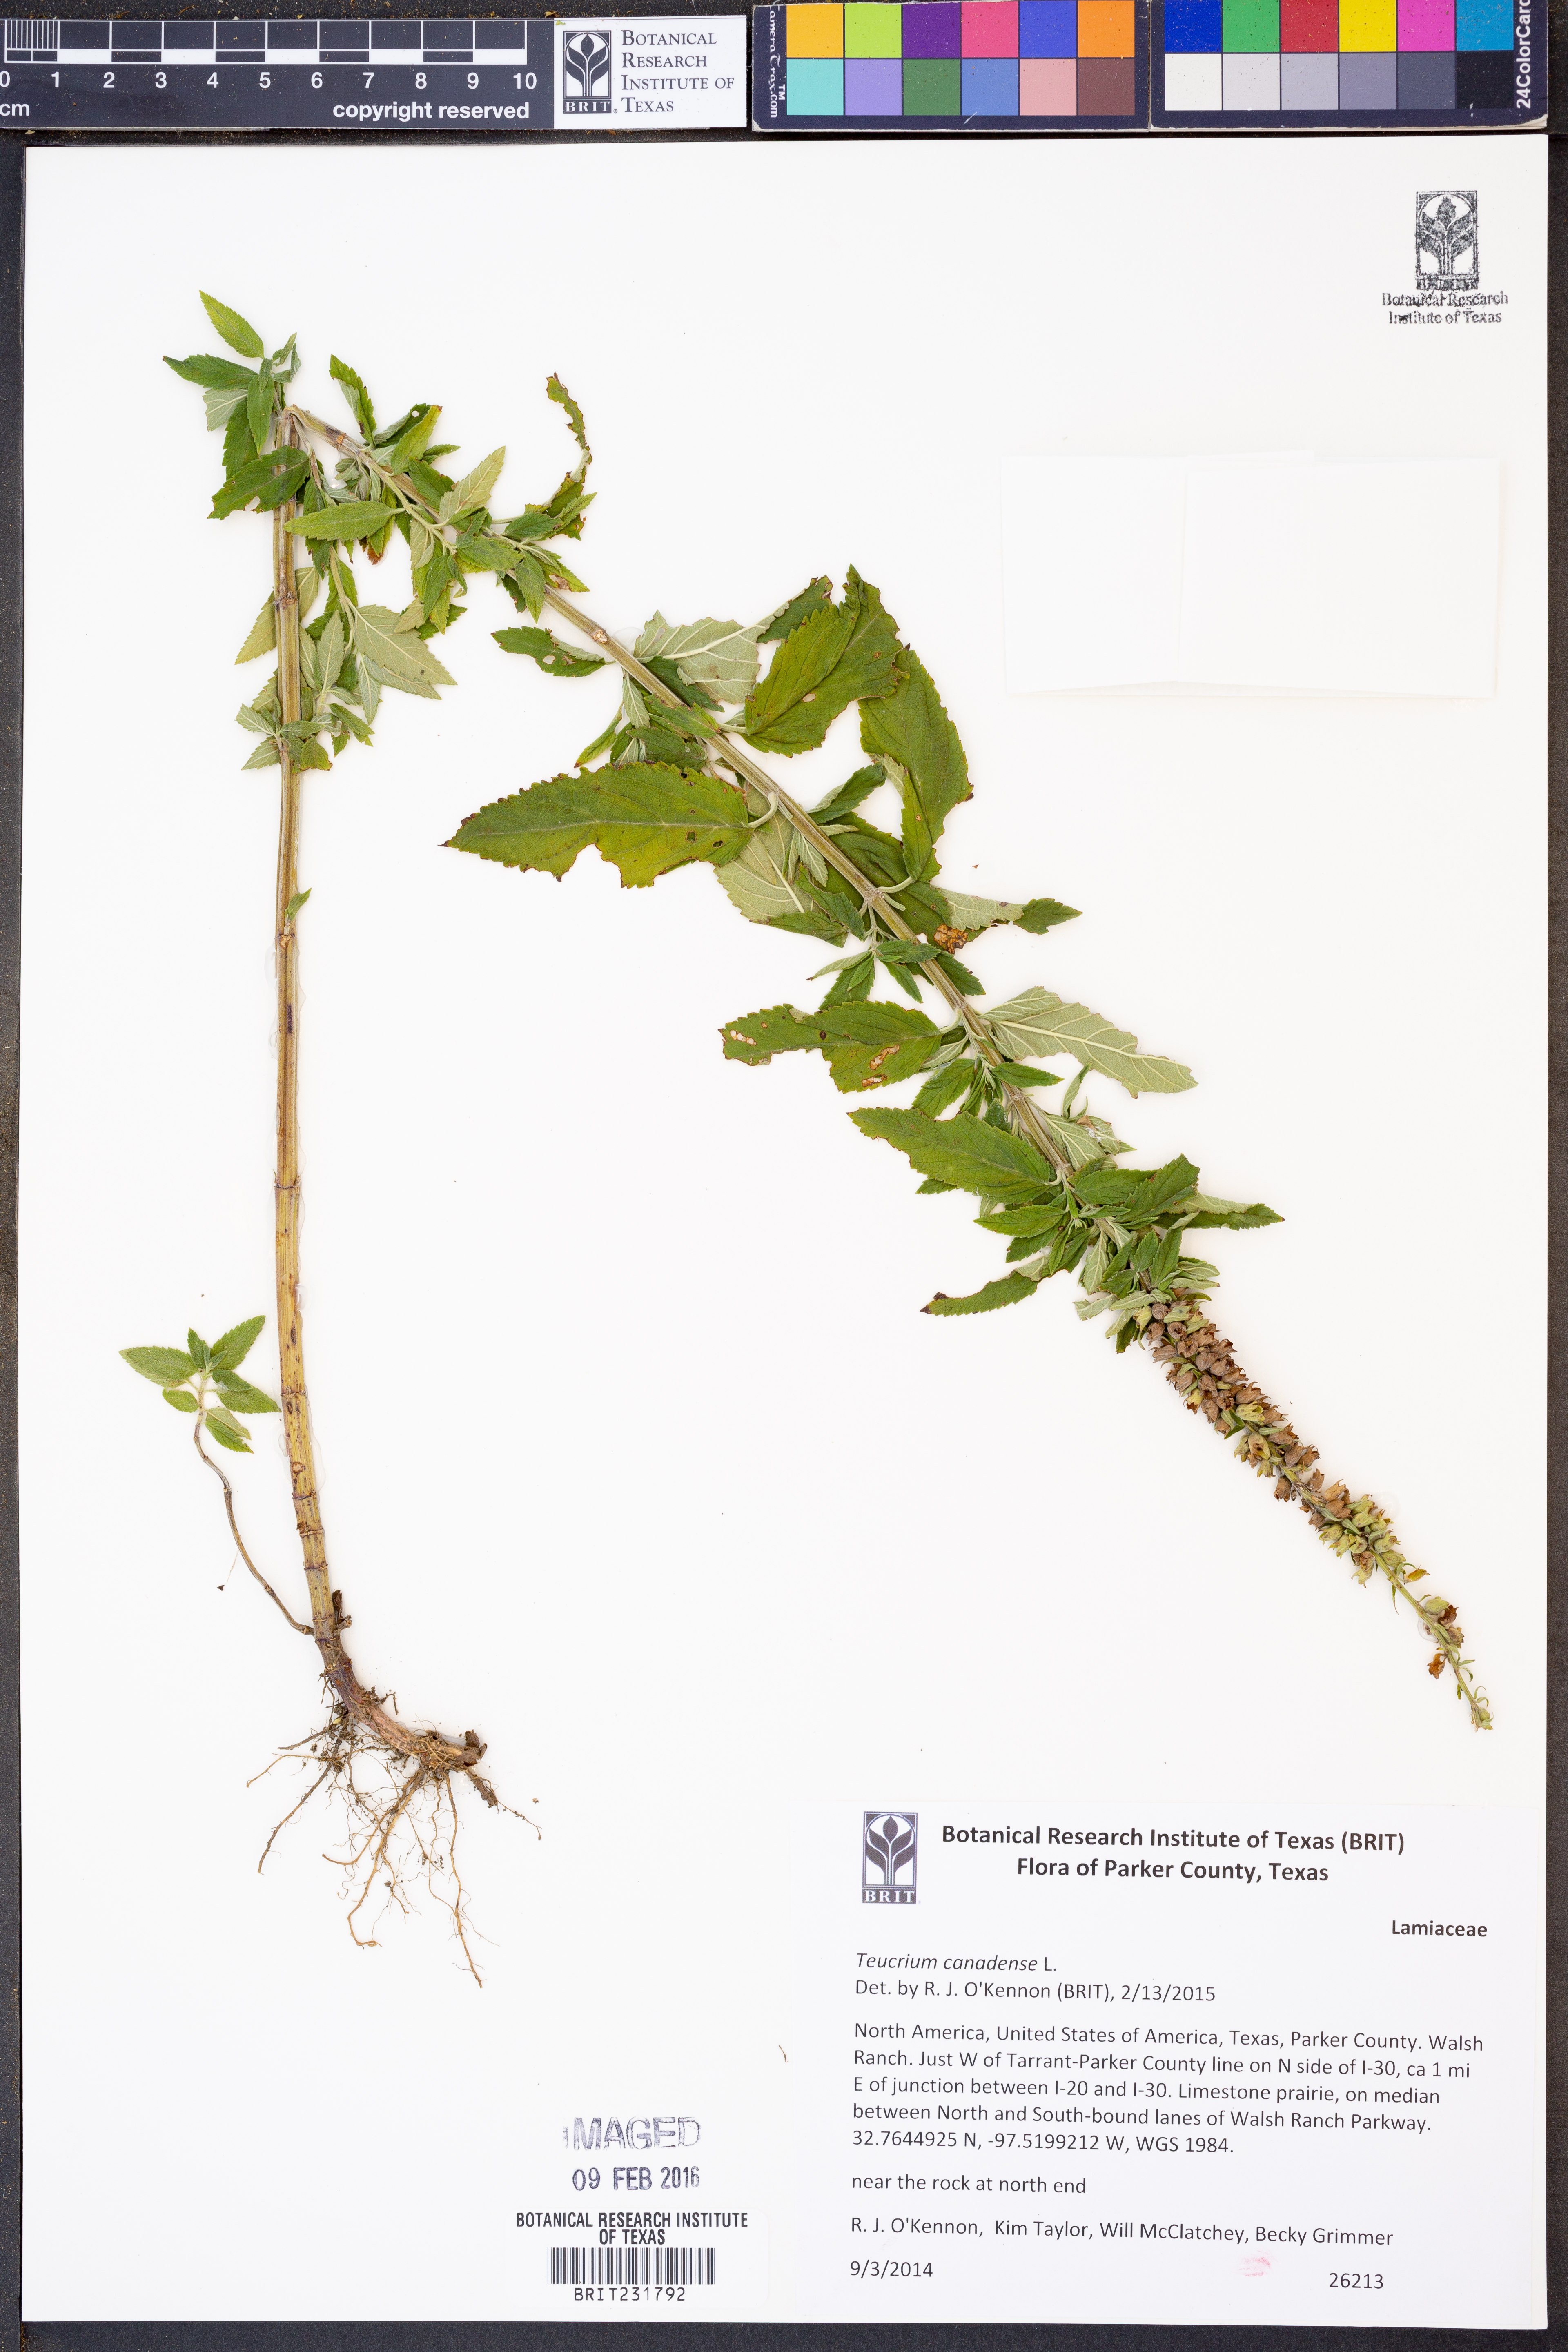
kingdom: Plantae
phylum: Tracheophyta
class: Magnoliopsida
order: Lamiales
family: Lamiaceae
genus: Teucrium
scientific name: Teucrium canadense
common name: American germander
